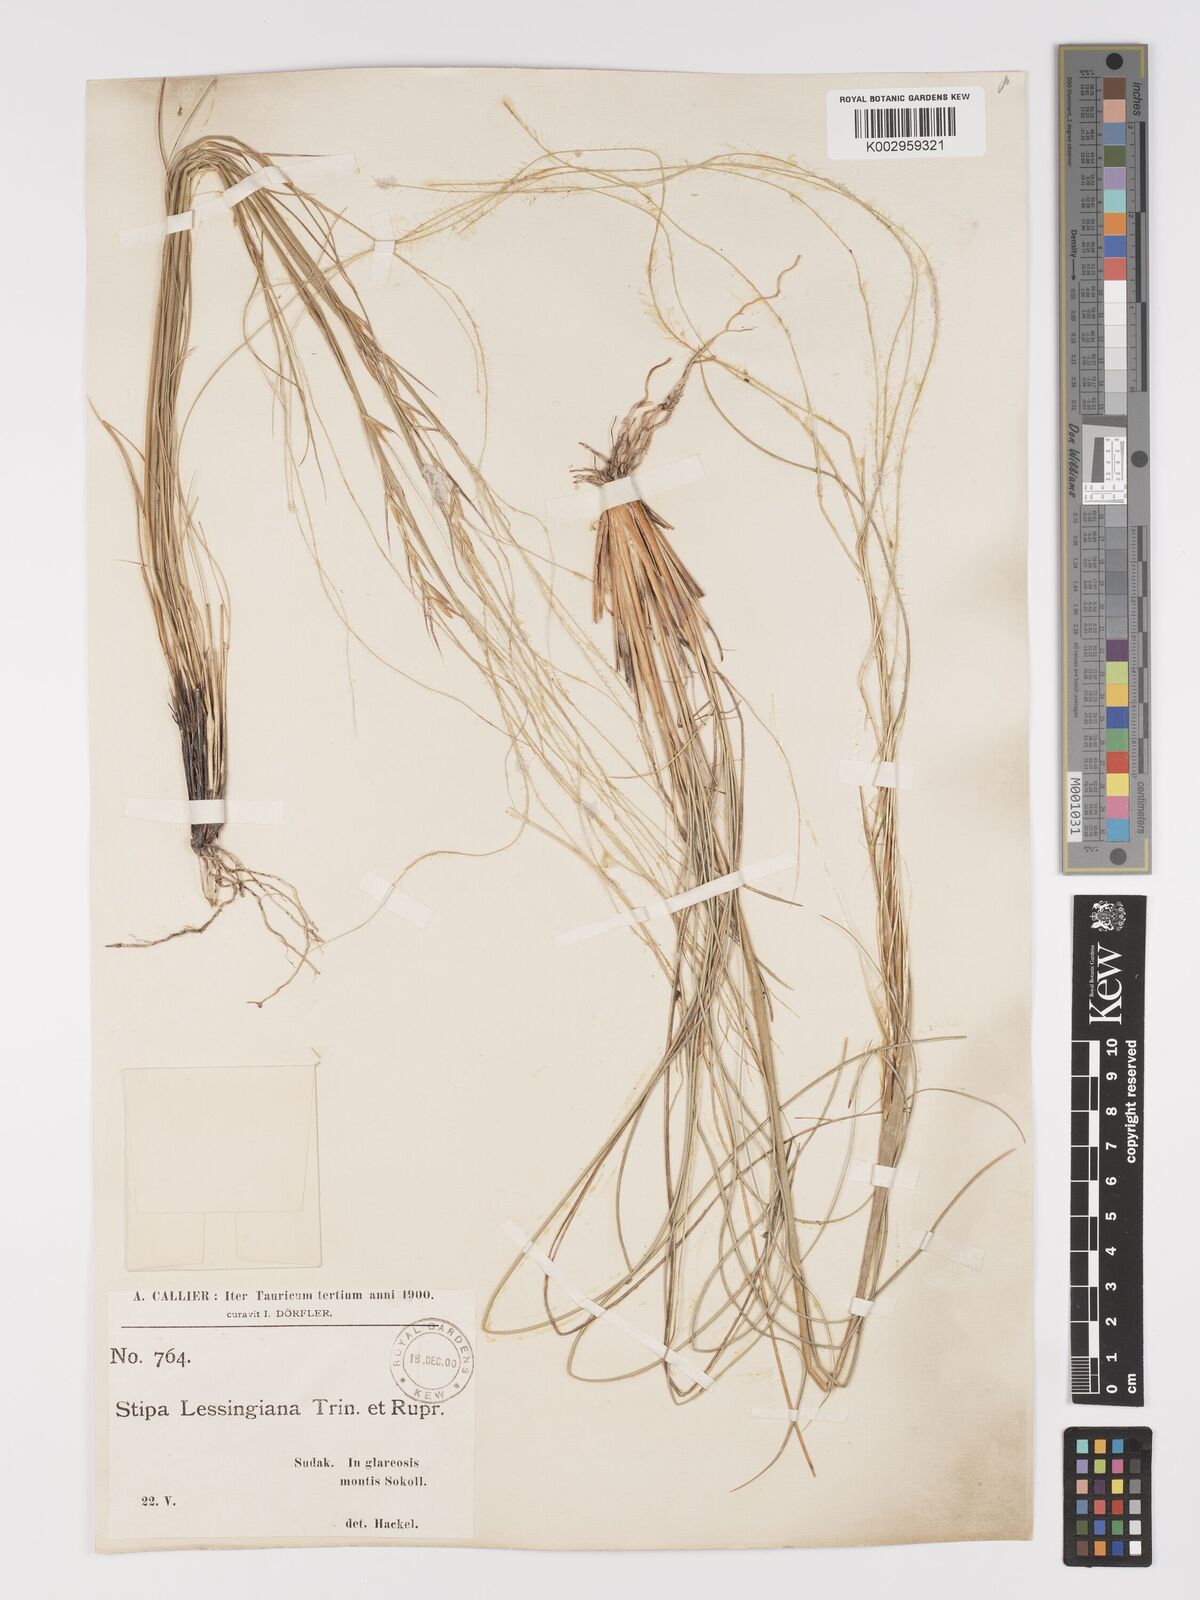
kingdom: Plantae
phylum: Tracheophyta
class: Liliopsida
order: Poales
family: Poaceae
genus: Stipa
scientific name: Stipa lessingiana
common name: Needle grass
